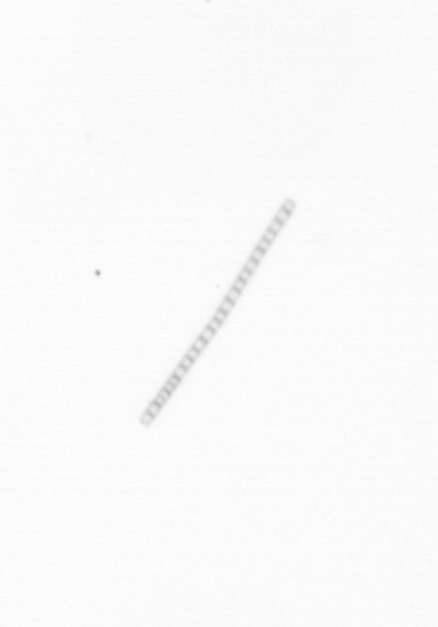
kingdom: Chromista
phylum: Ochrophyta
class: Bacillariophyceae
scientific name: Bacillariophyceae
